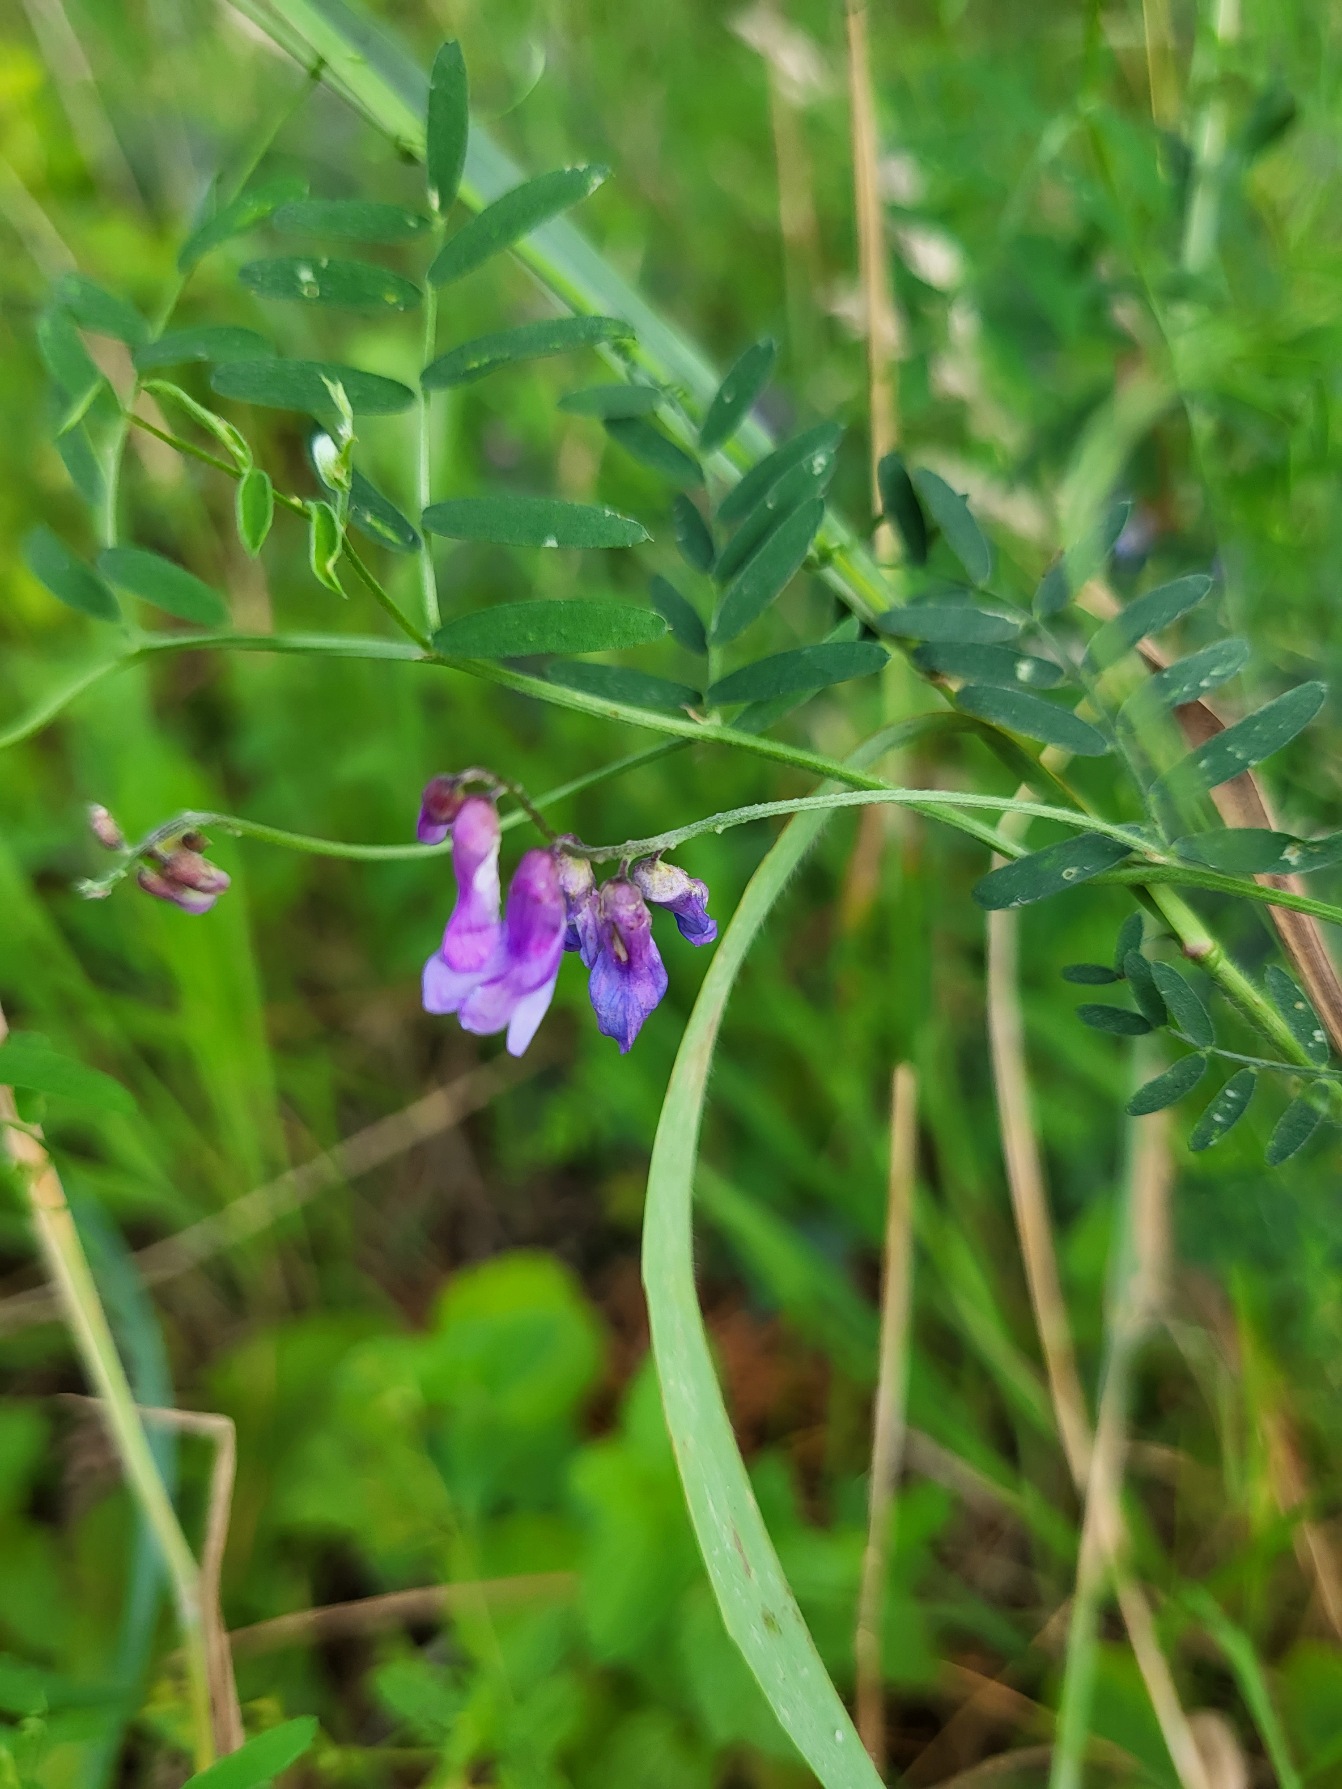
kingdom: Plantae
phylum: Tracheophyta
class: Magnoliopsida
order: Fabales
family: Fabaceae
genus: Vicia
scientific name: Vicia cracca
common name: Muse-vikke
